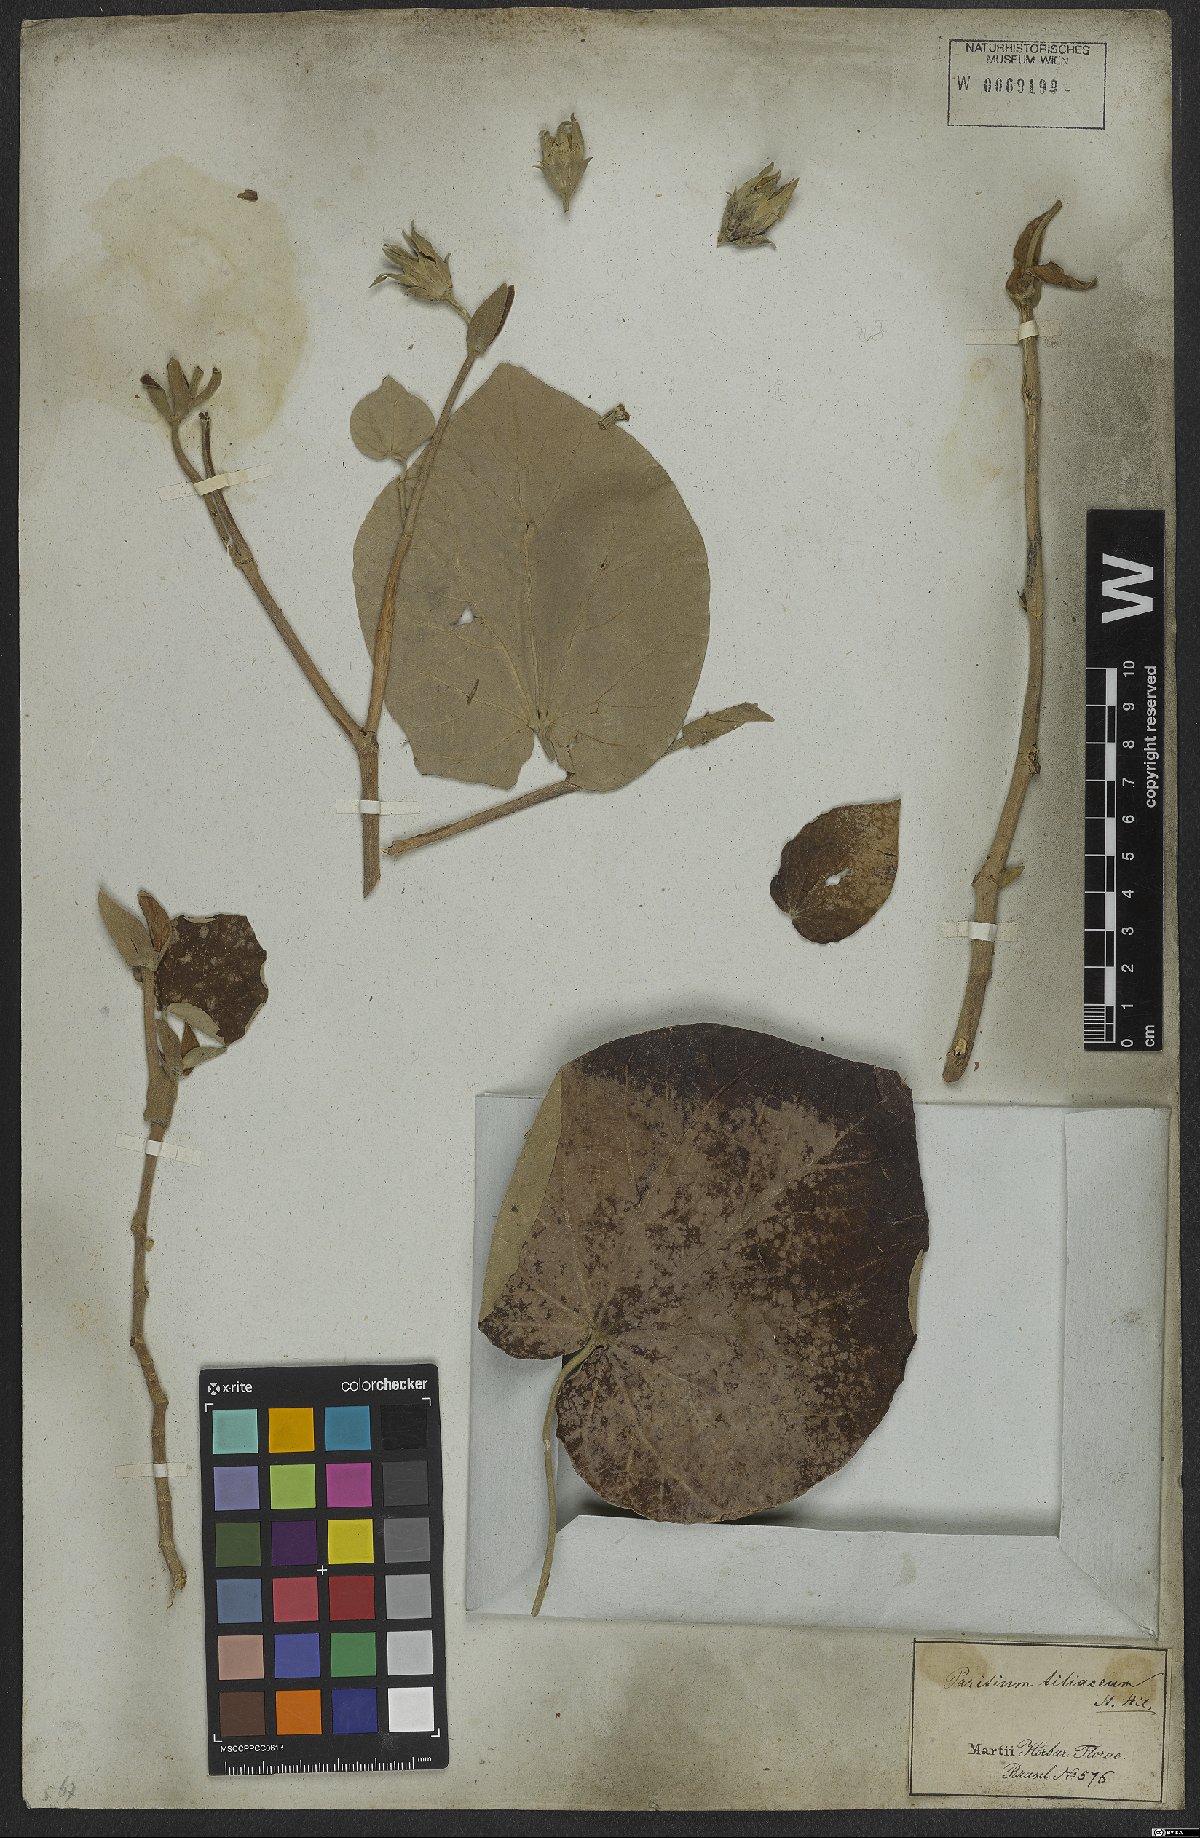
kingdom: Plantae
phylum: Tracheophyta
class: Magnoliopsida
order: Malvales
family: Malvaceae
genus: Talipariti
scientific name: Talipariti tiliaceum
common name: Sea hibiscus
